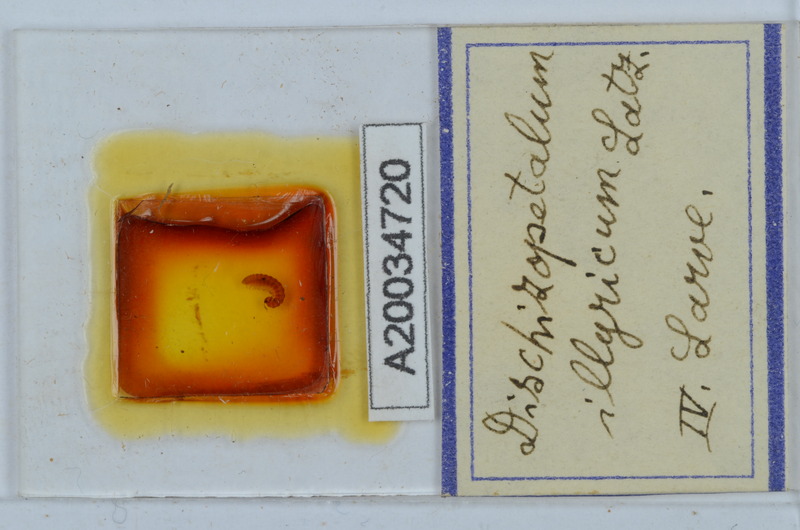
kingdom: Animalia
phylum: Arthropoda
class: Diplopoda
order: Callipodida
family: Schizopetalidae
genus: Callipodella
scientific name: Callipodella
